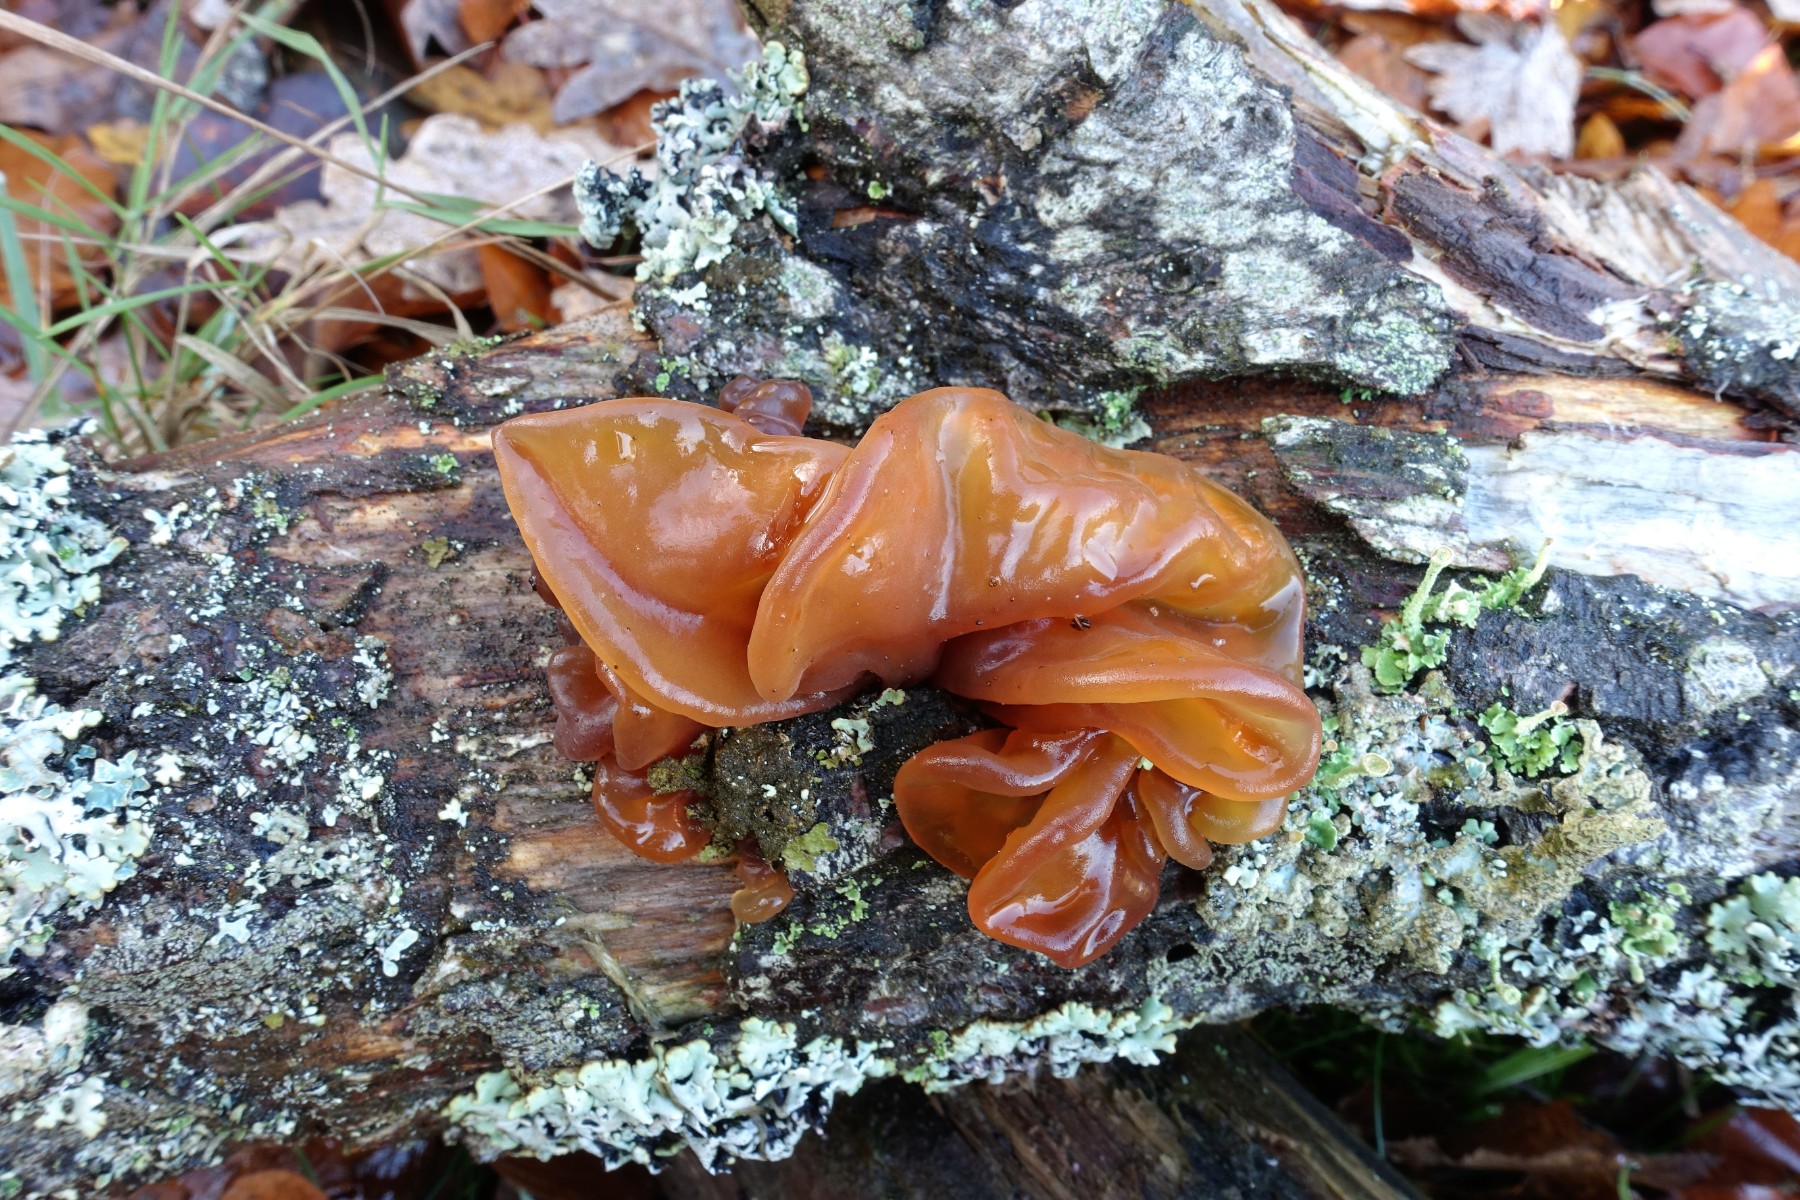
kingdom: Fungi
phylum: Basidiomycota
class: Tremellomycetes
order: Tremellales
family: Tremellaceae
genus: Phaeotremella
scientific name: Phaeotremella frondosa
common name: kæmpe-bævresvamp
